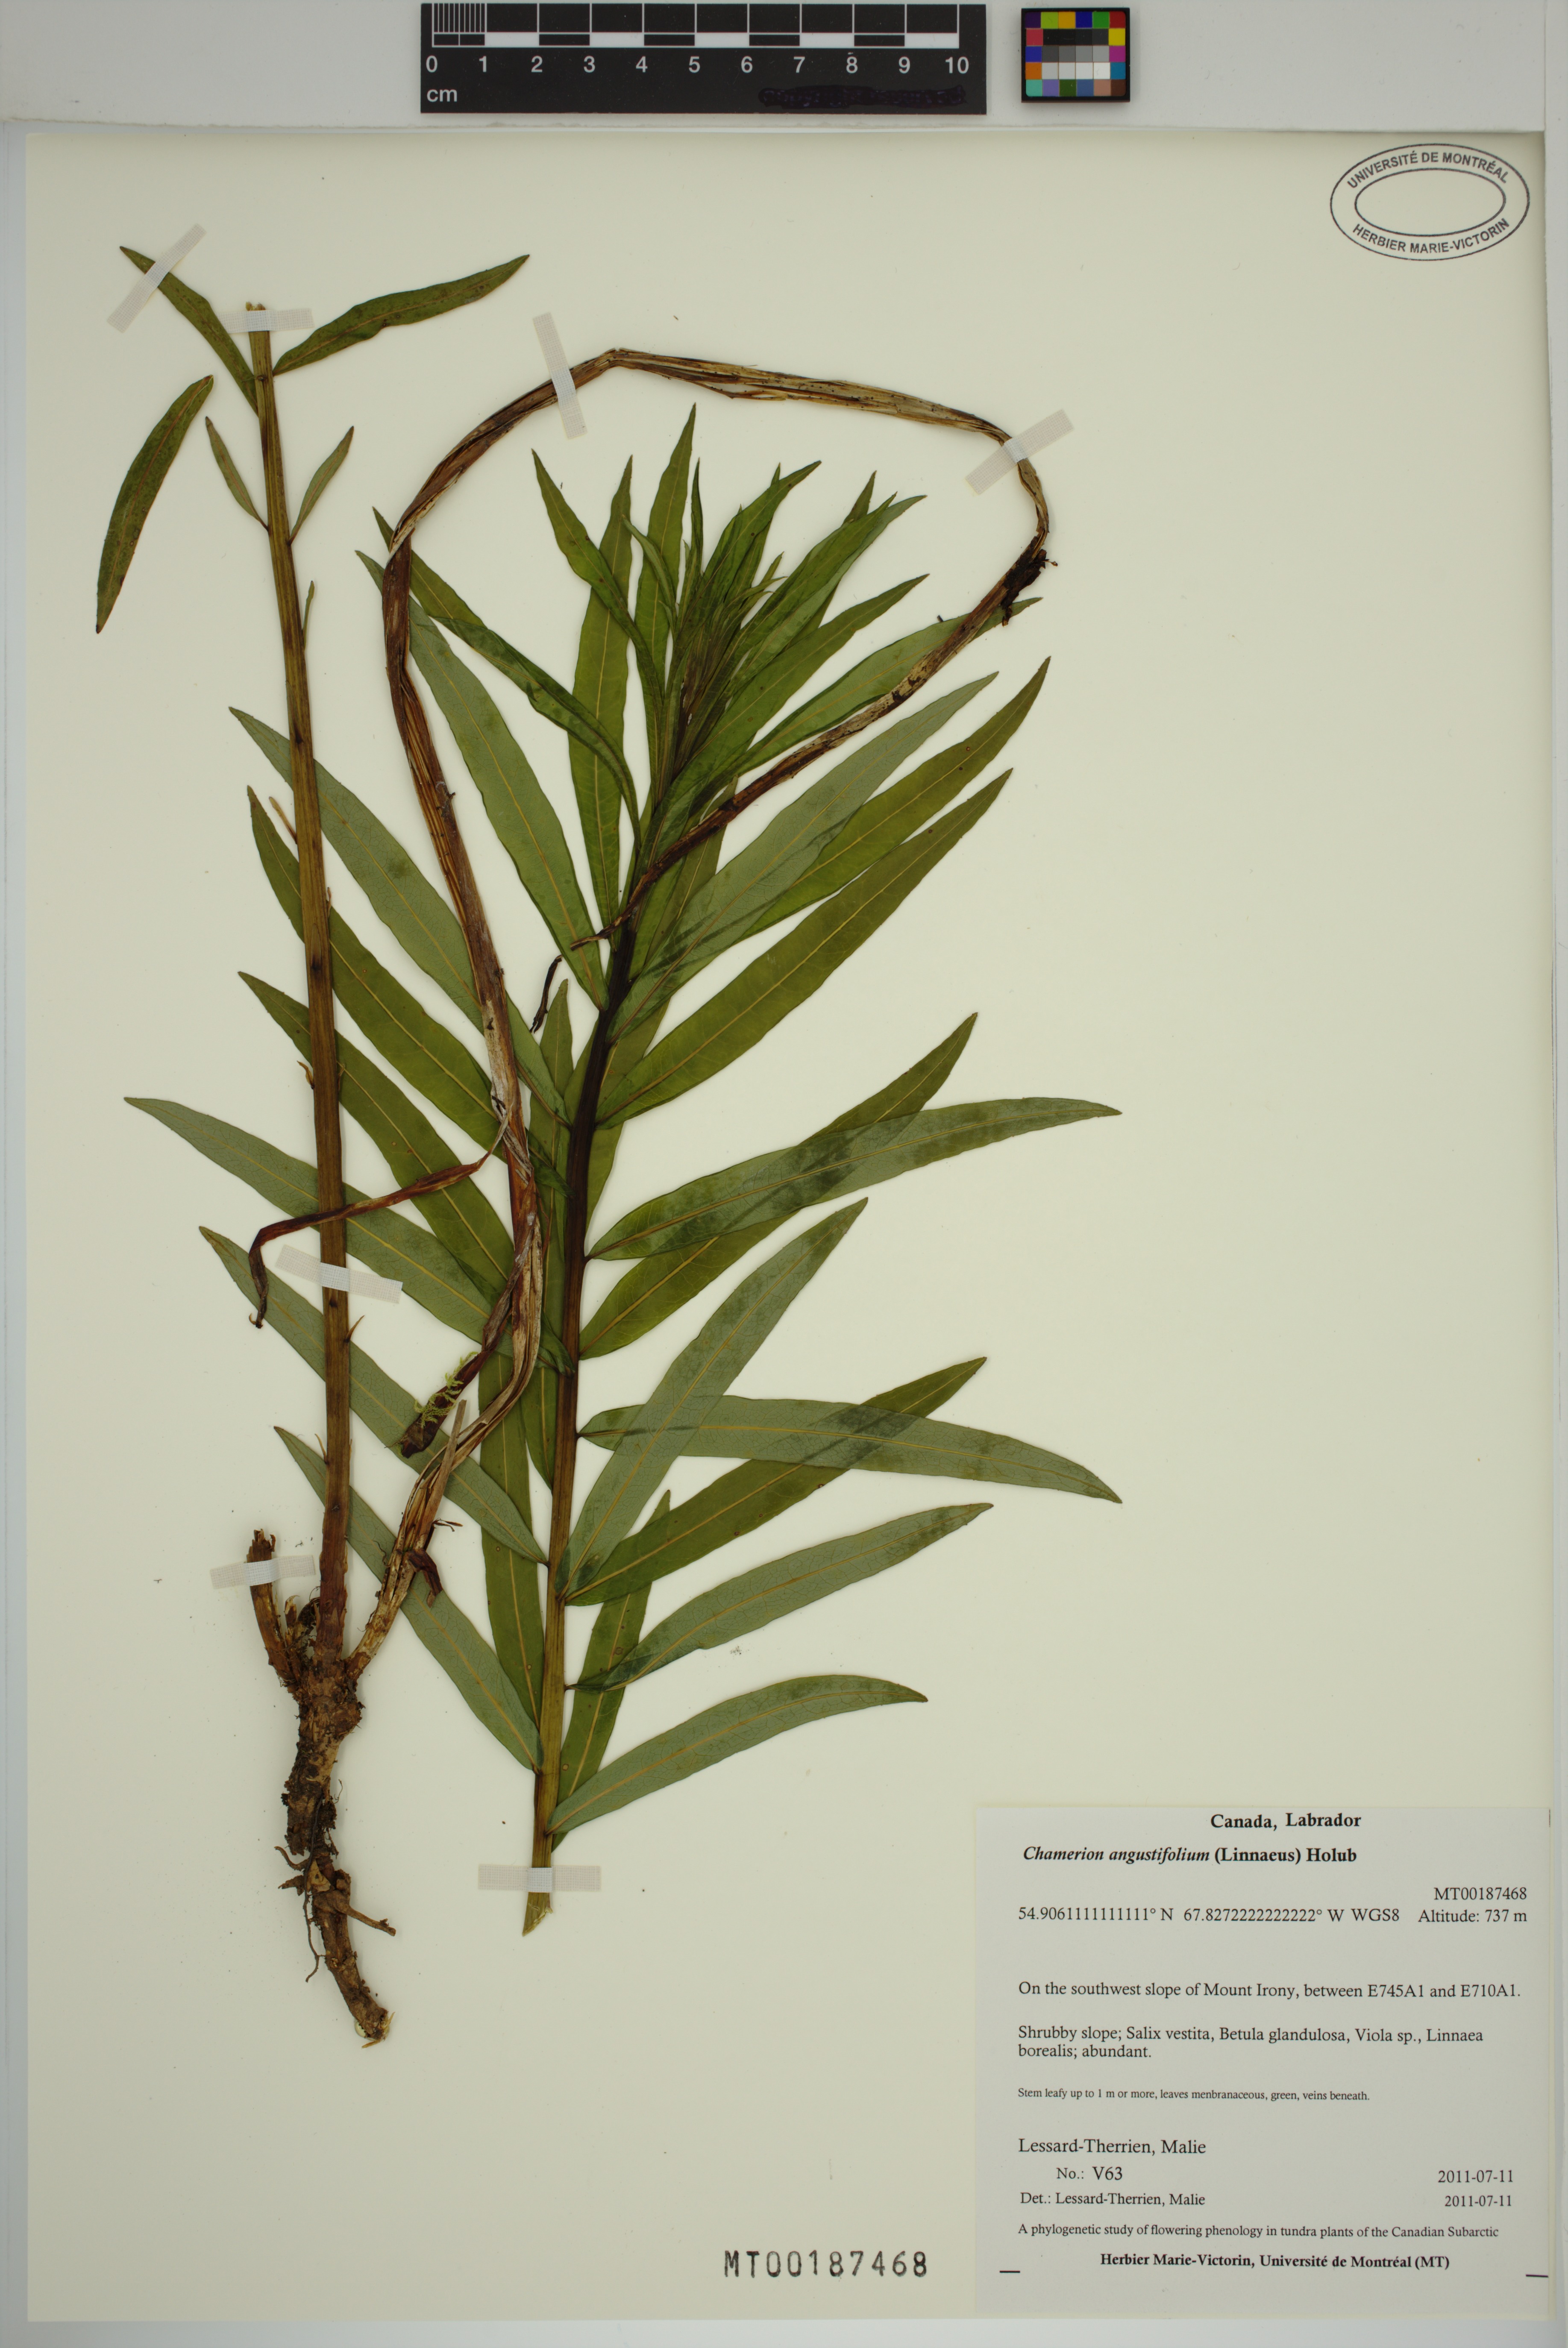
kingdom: Plantae
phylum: Tracheophyta
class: Magnoliopsida
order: Myrtales
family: Onagraceae
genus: Chamaenerion
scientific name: Chamaenerion angustifolium
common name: Fireweed
